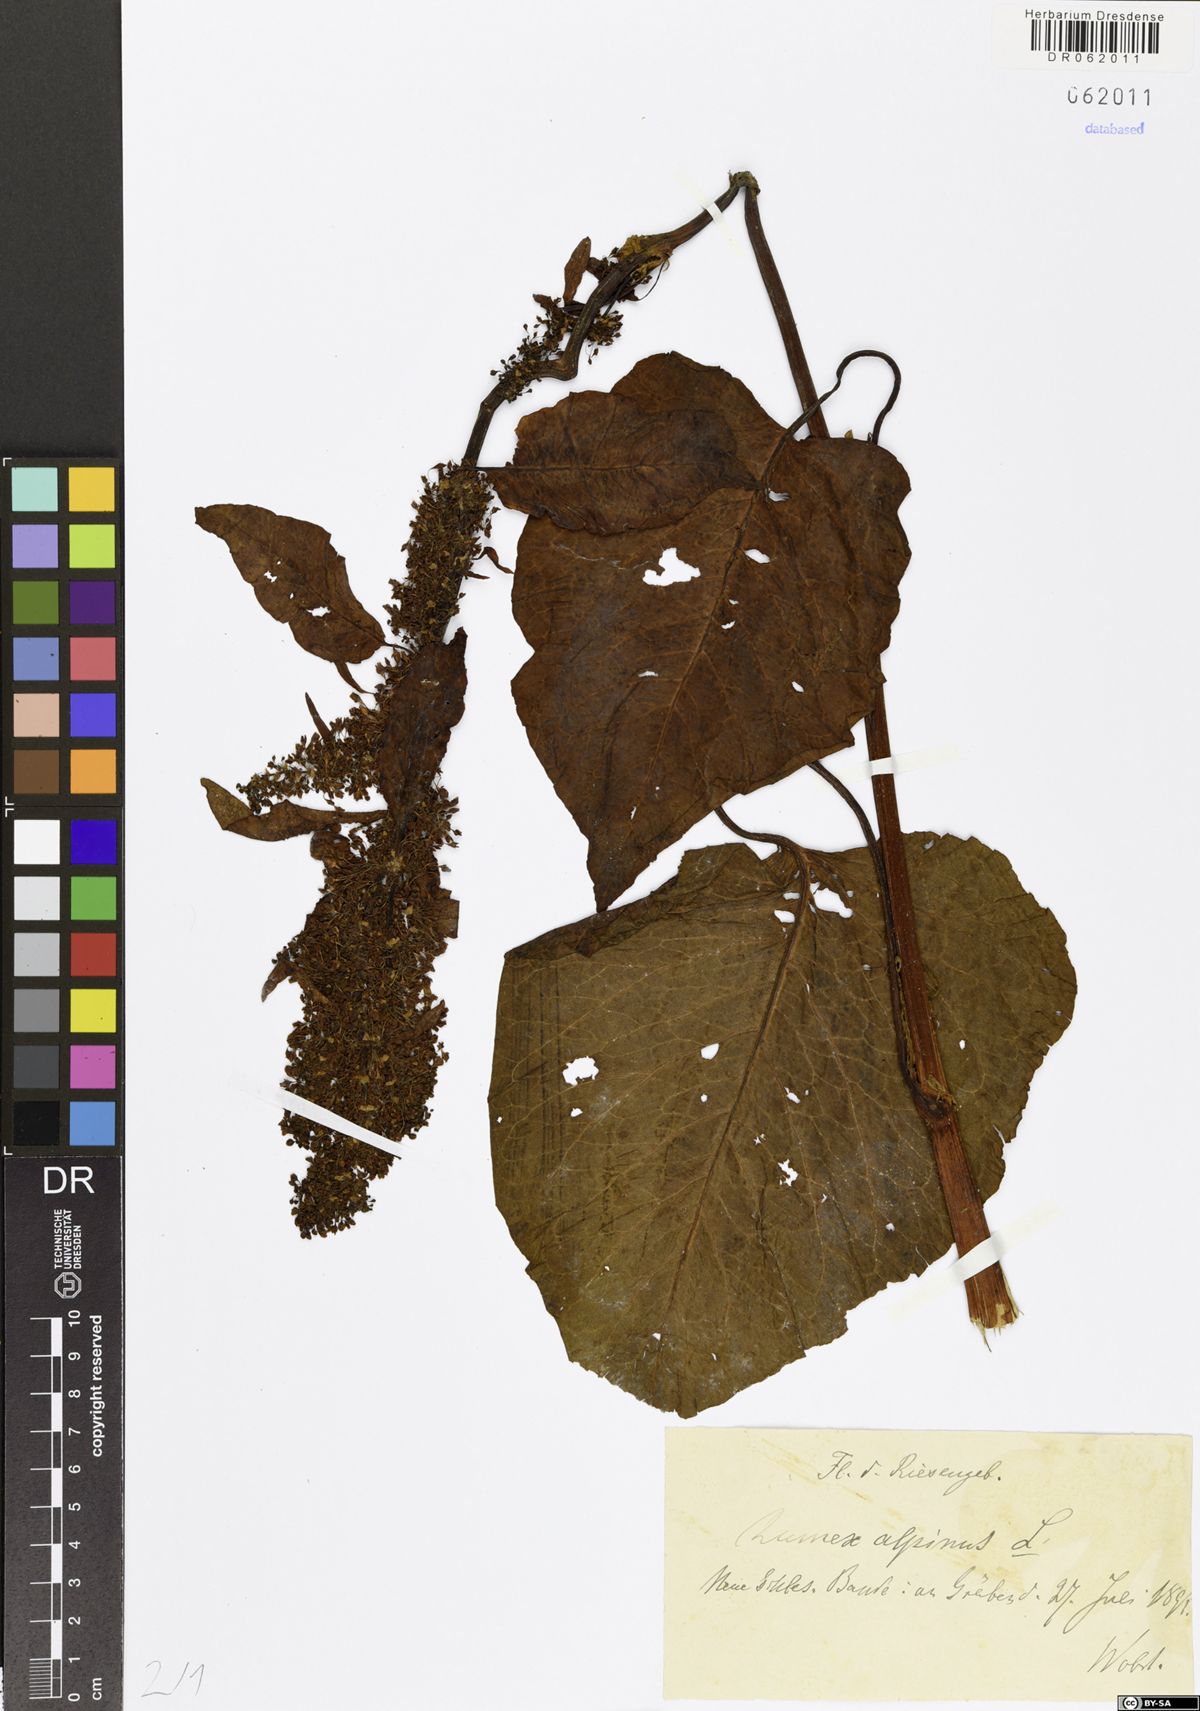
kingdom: Plantae
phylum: Tracheophyta
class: Magnoliopsida
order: Caryophyllales
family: Polygonaceae
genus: Rumex
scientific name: Rumex alpinus
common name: Alpine dock
